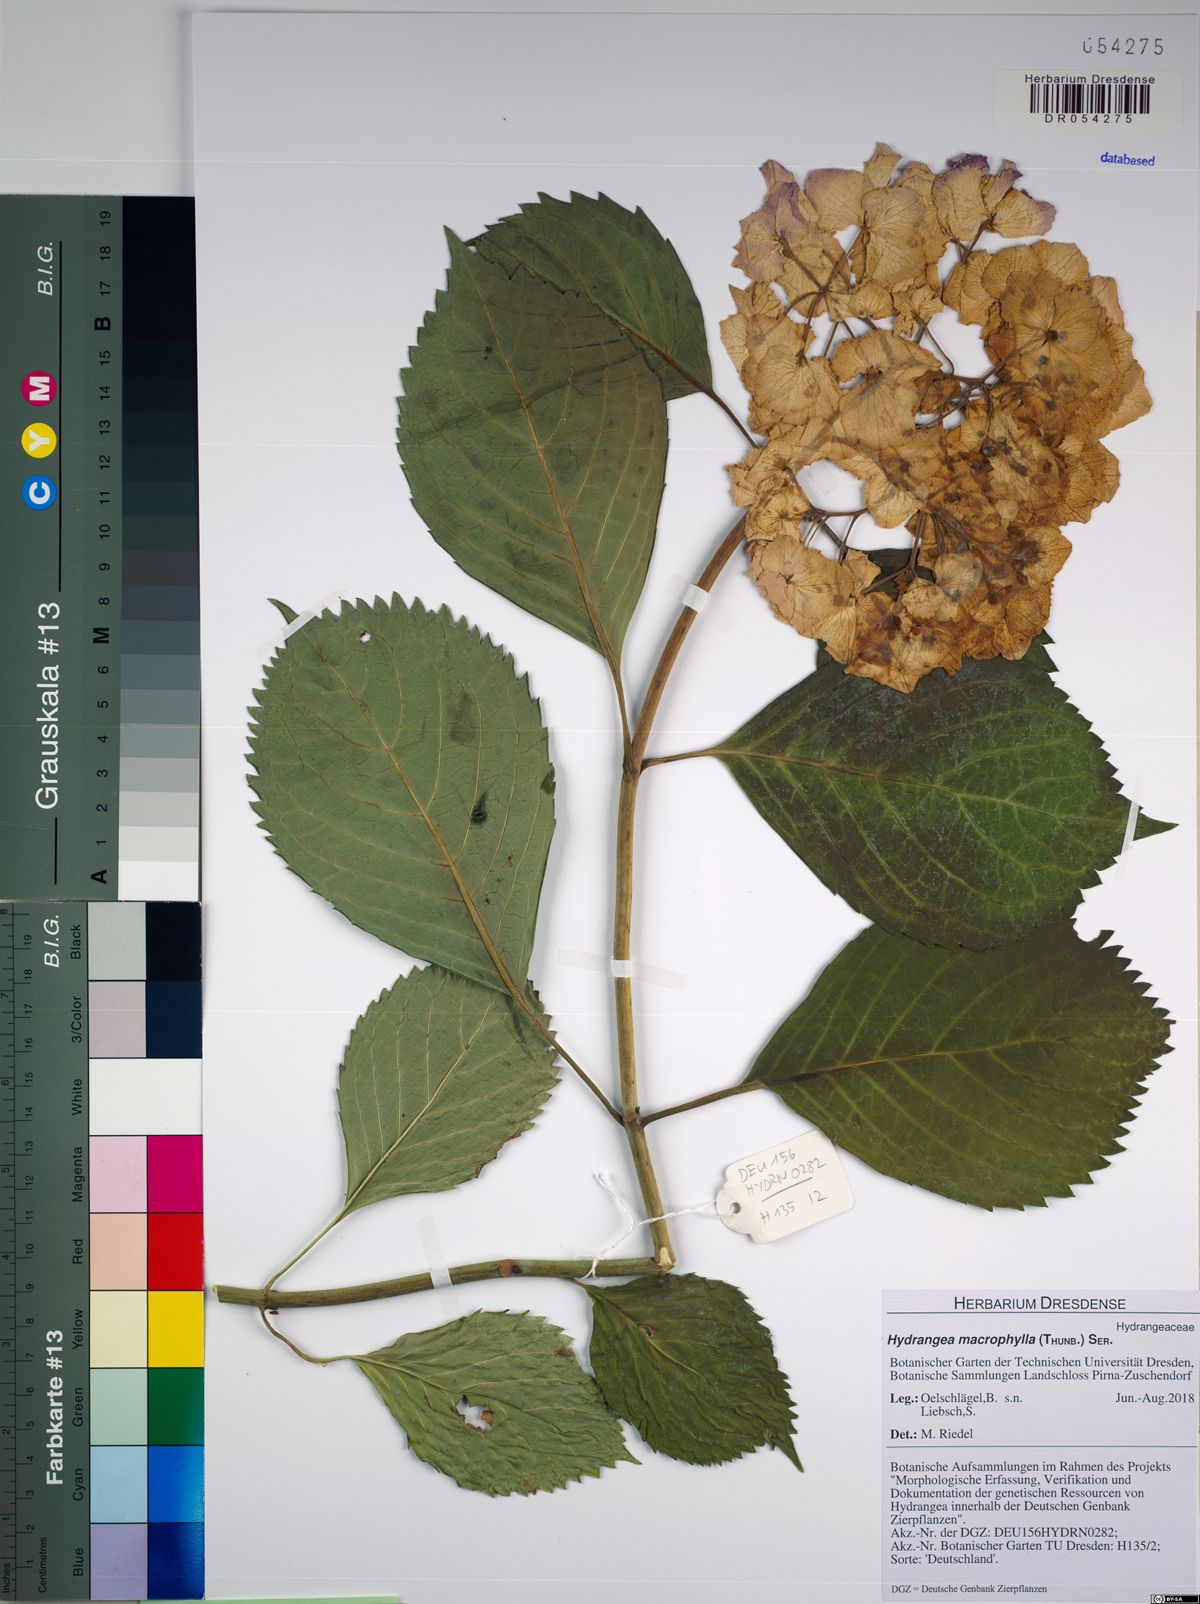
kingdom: Plantae
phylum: Tracheophyta
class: Magnoliopsida
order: Cornales
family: Hydrangeaceae
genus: Hydrangea
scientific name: Hydrangea macrophylla
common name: Hydrangea
